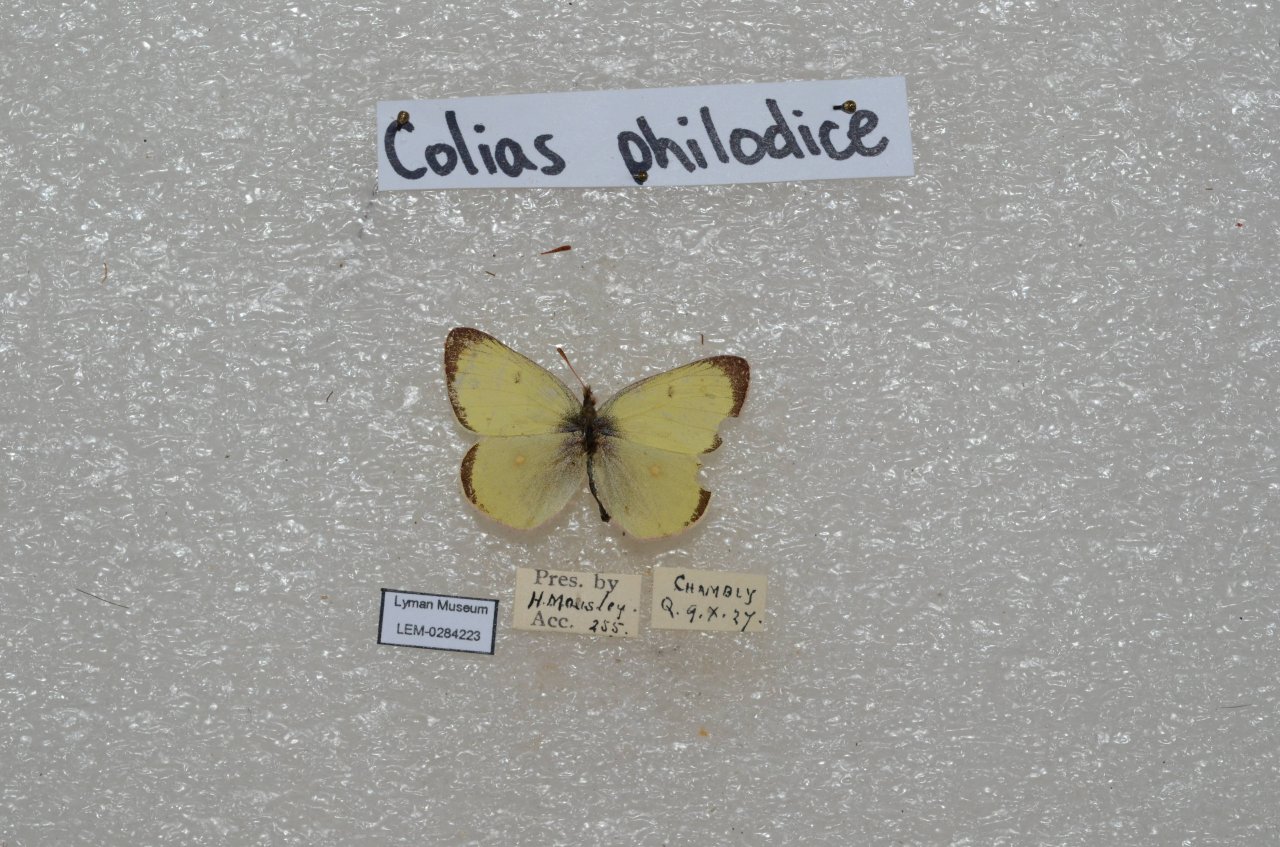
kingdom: Animalia
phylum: Arthropoda
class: Insecta
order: Lepidoptera
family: Pieridae
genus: Colias
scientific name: Colias philodice
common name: Clouded Sulphur
